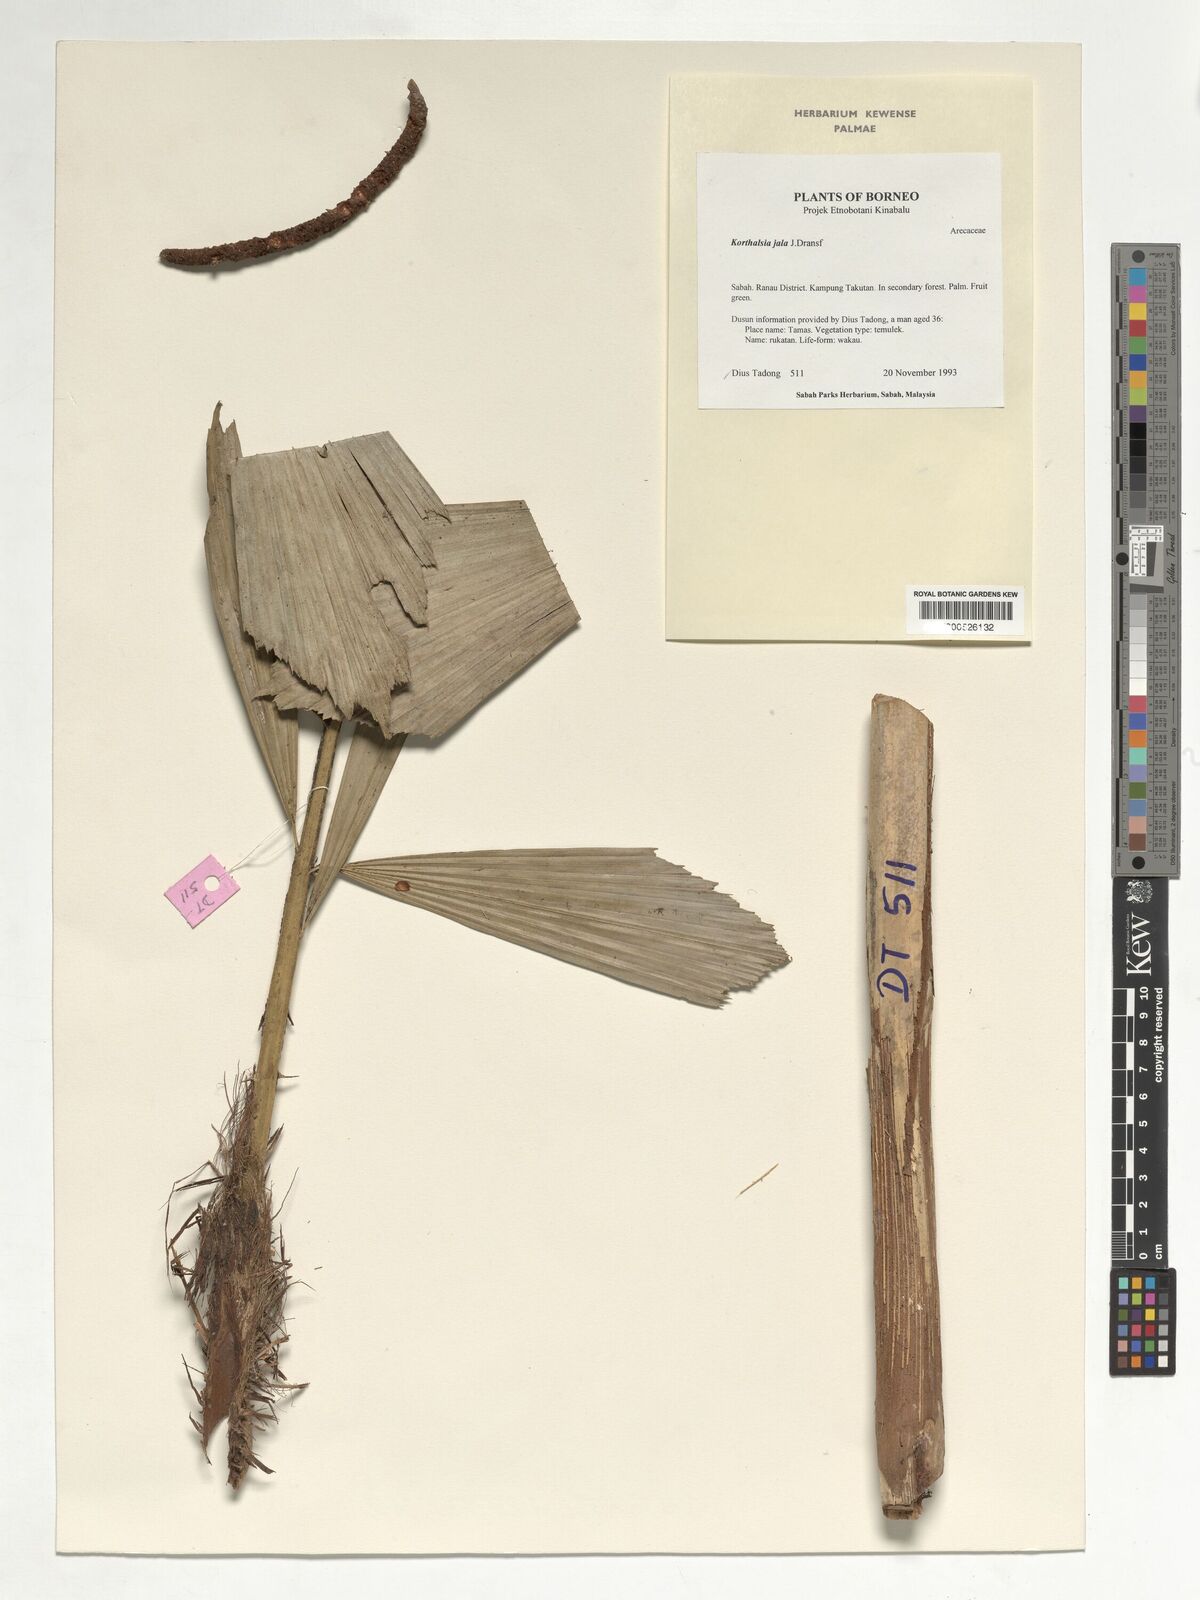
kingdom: Plantae
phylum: Tracheophyta
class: Liliopsida
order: Arecales
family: Arecaceae
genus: Korthalsia
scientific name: Korthalsia jala
